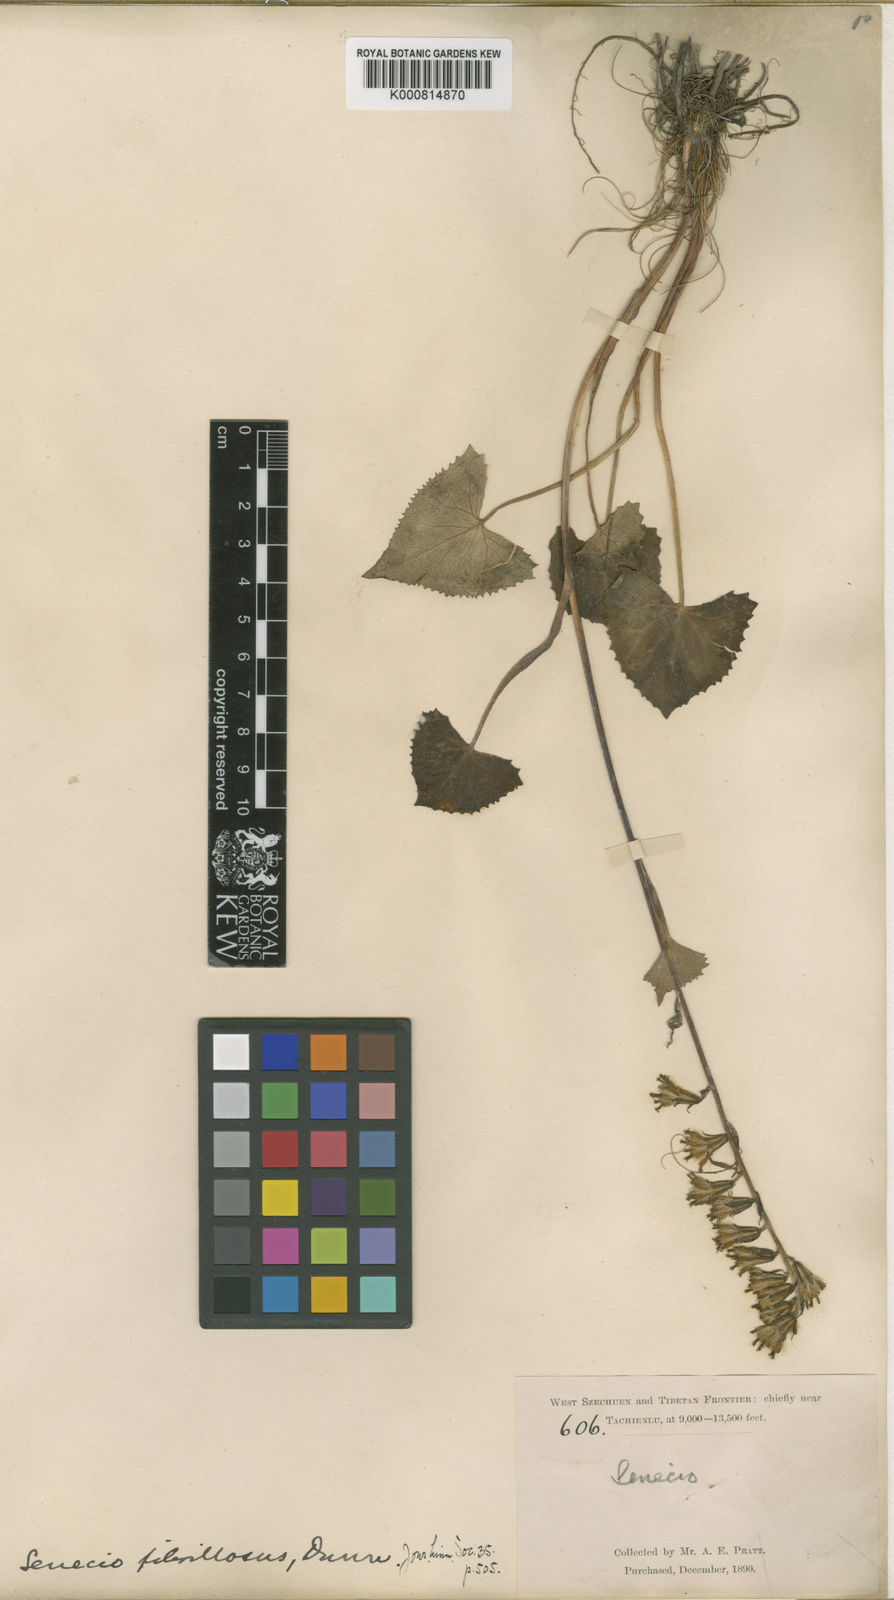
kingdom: Plantae
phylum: Tracheophyta
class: Magnoliopsida
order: Asterales
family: Asteraceae
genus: Ligularia
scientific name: Ligularia subspicata
